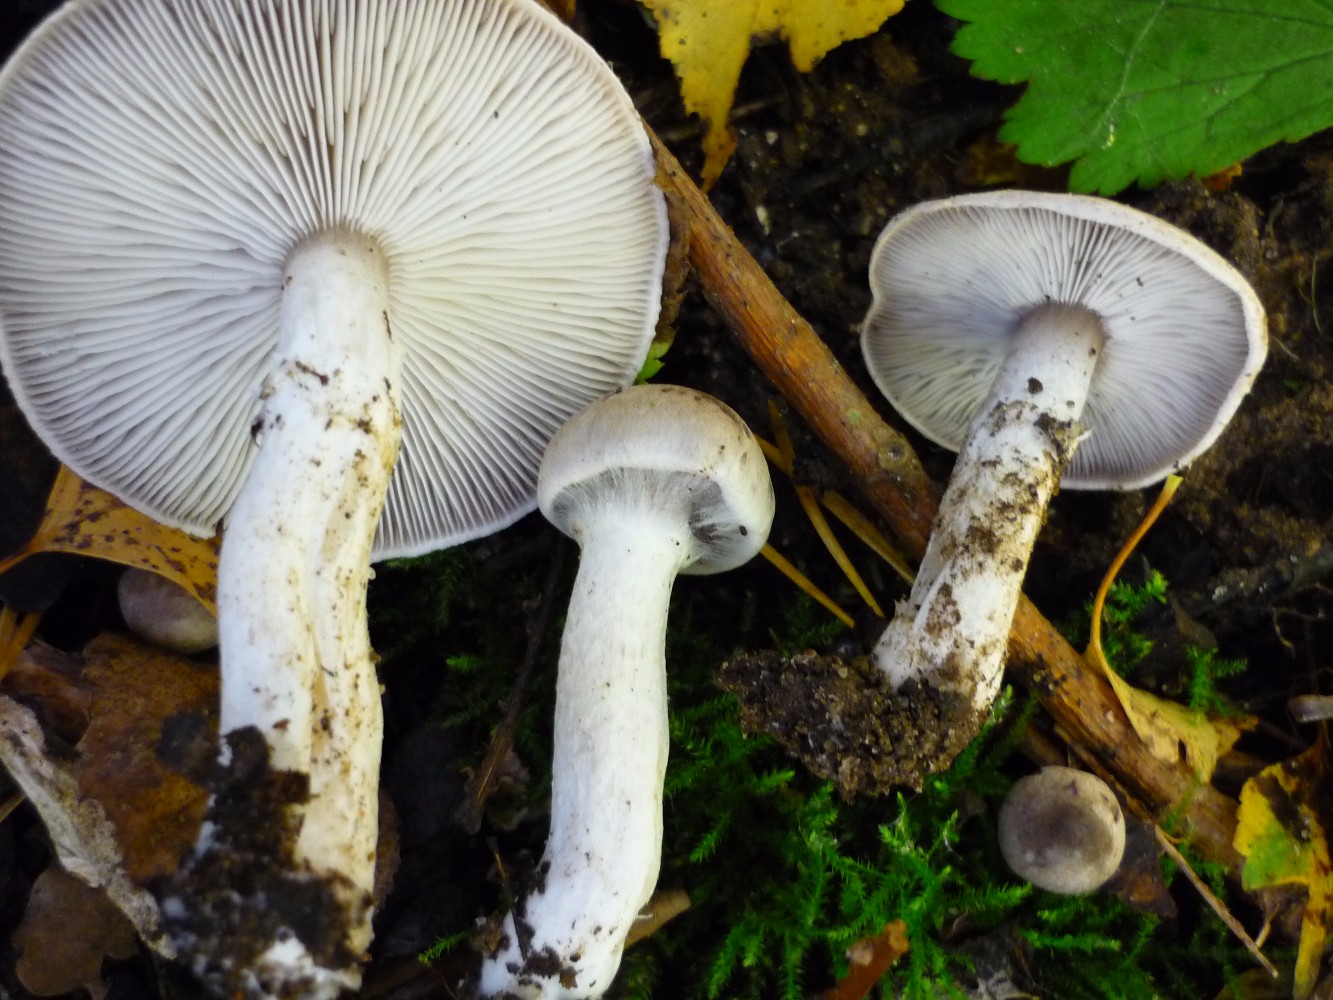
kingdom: Fungi
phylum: Basidiomycota
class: Agaricomycetes
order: Agaricales
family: Tricholomataceae
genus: Tricholoma
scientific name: Tricholoma argyraceum
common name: slør-ridderhat
